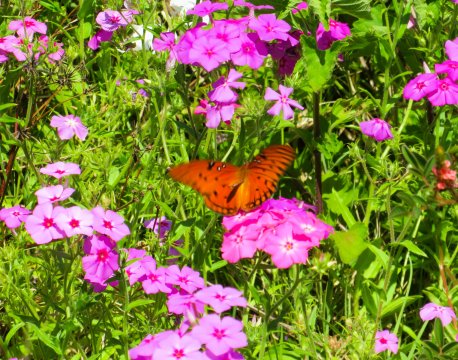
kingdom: Animalia
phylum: Arthropoda
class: Insecta
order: Lepidoptera
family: Nymphalidae
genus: Dione
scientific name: Dione vanillae
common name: Gulf Fritillary
